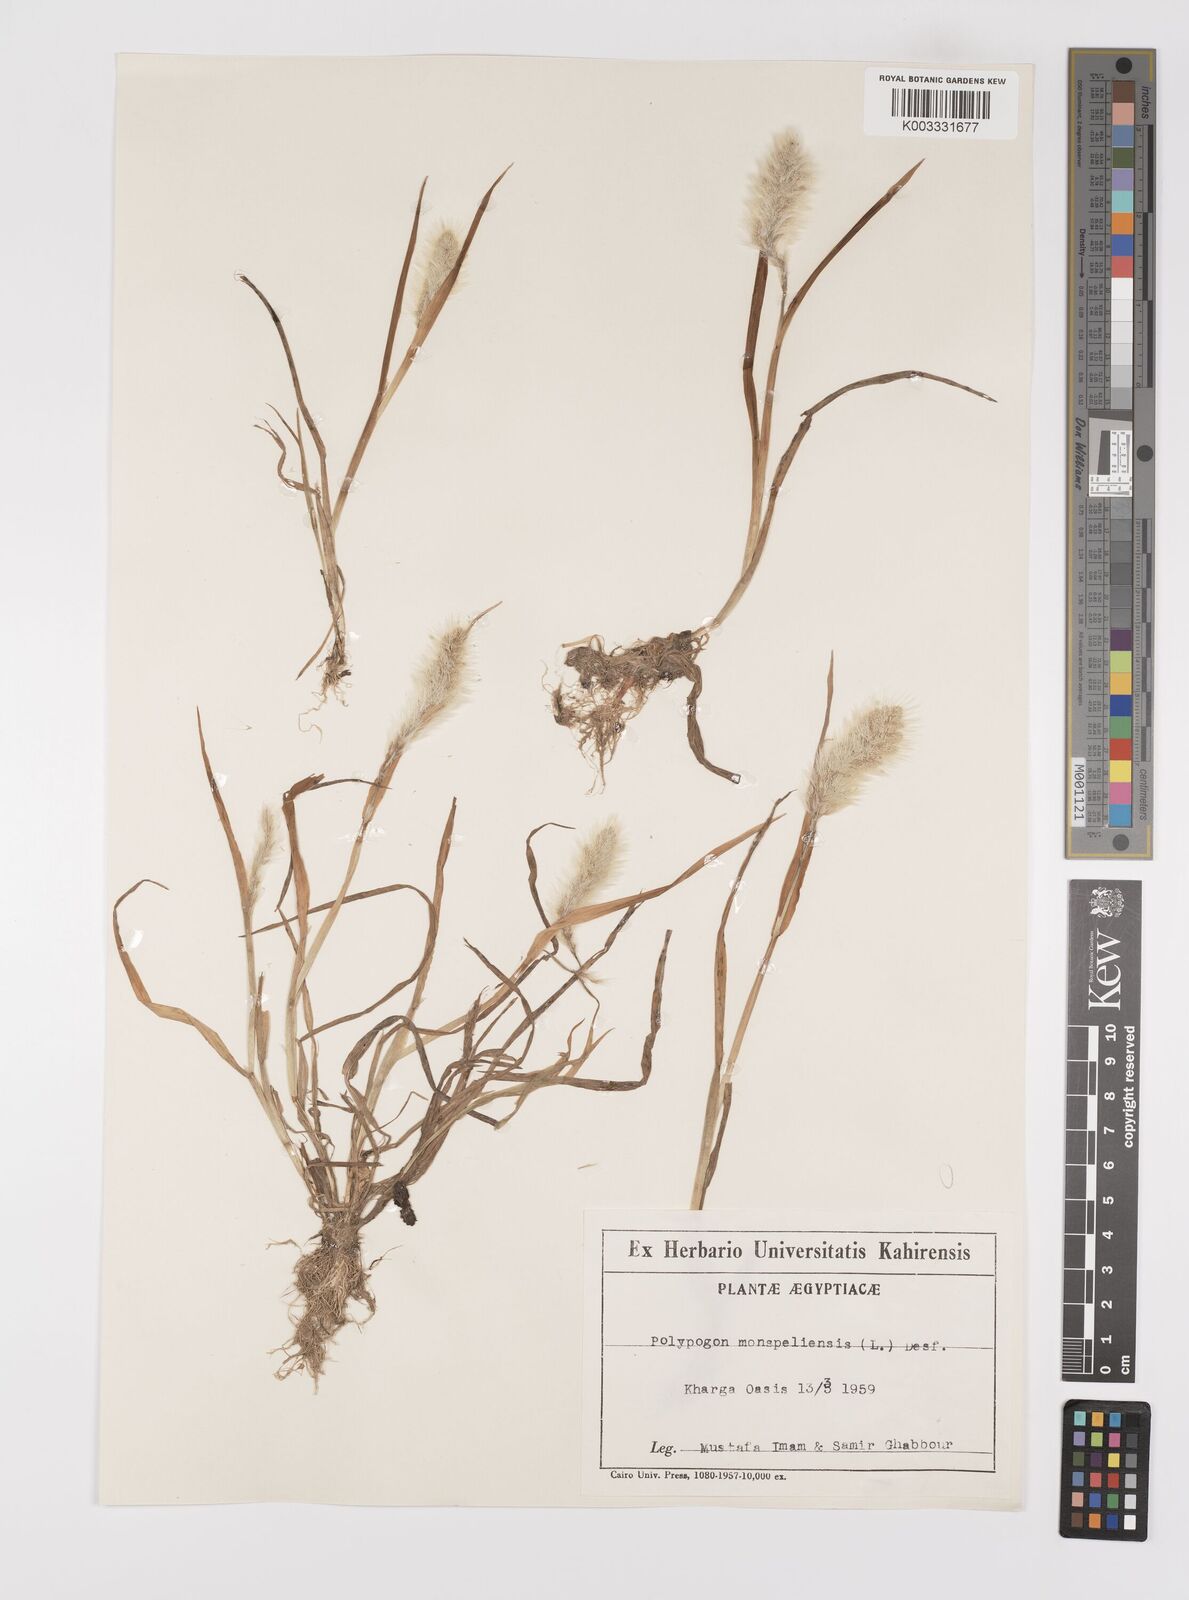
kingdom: Plantae
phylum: Tracheophyta
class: Liliopsida
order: Poales
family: Poaceae
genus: Polypogon
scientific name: Polypogon monspeliensis
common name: Annual rabbitsfoot grass
